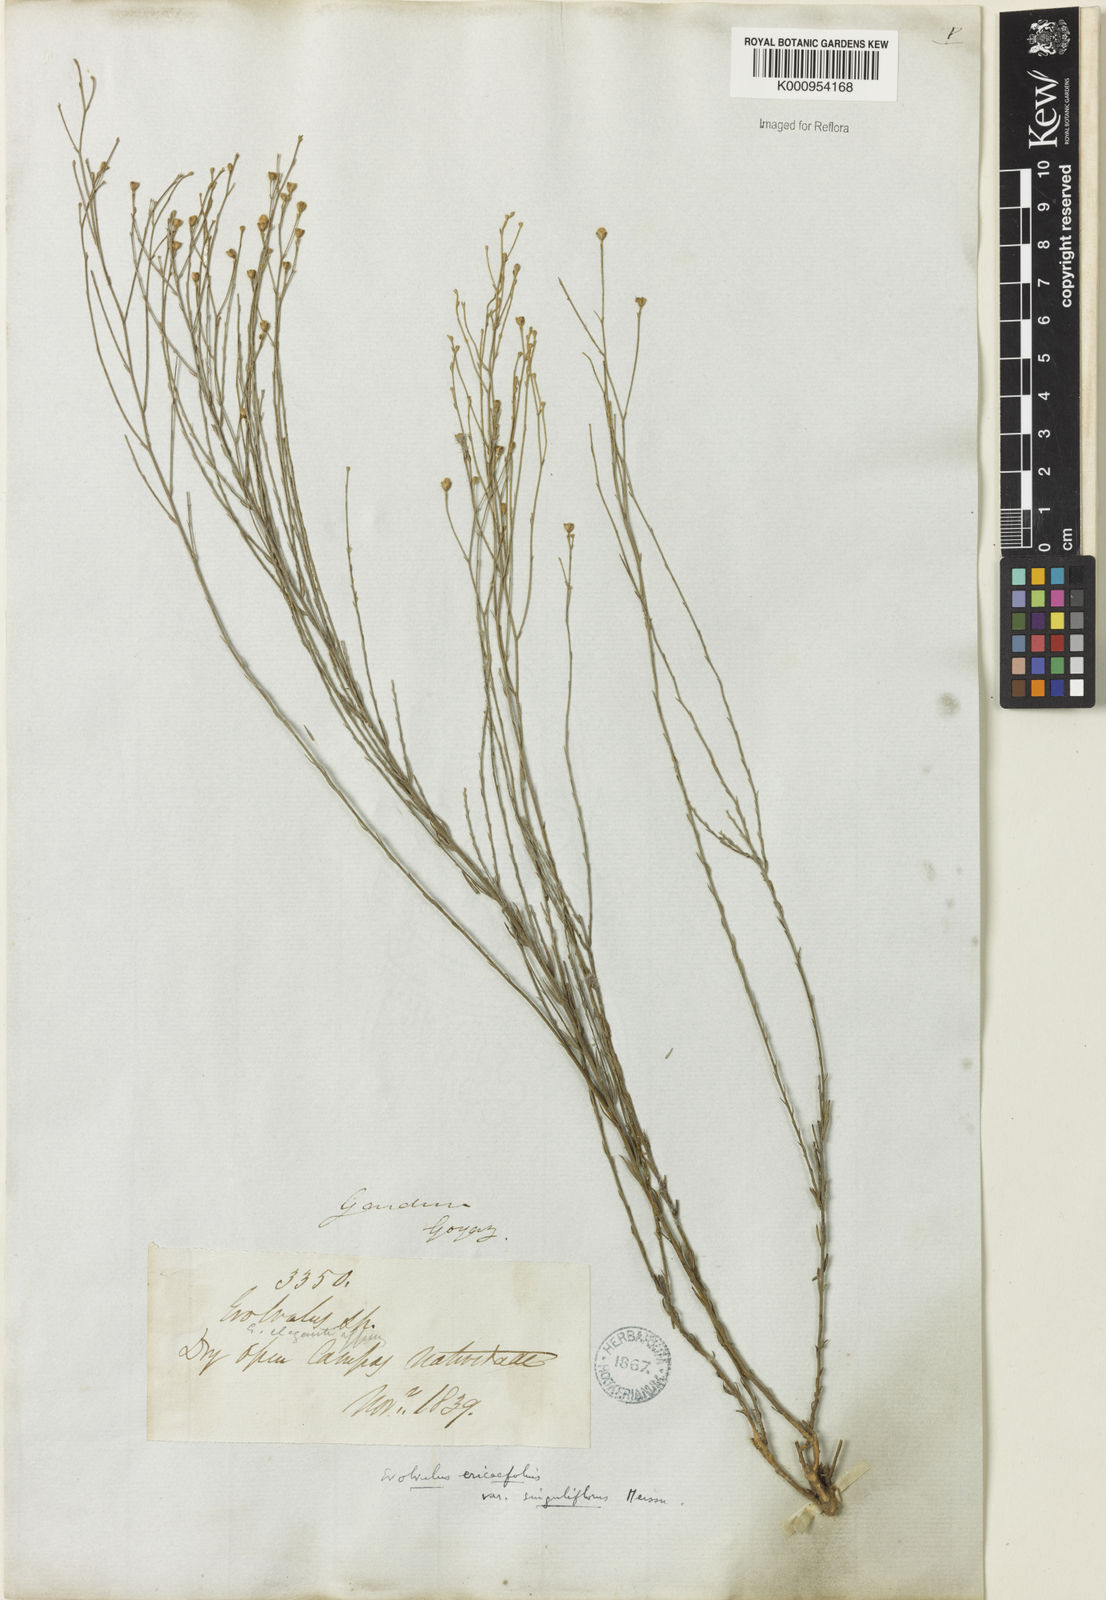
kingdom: Plantae
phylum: Tracheophyta
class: Magnoliopsida
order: Solanales
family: Convolvulaceae
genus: Evolvulus
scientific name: Evolvulus ericifolius
